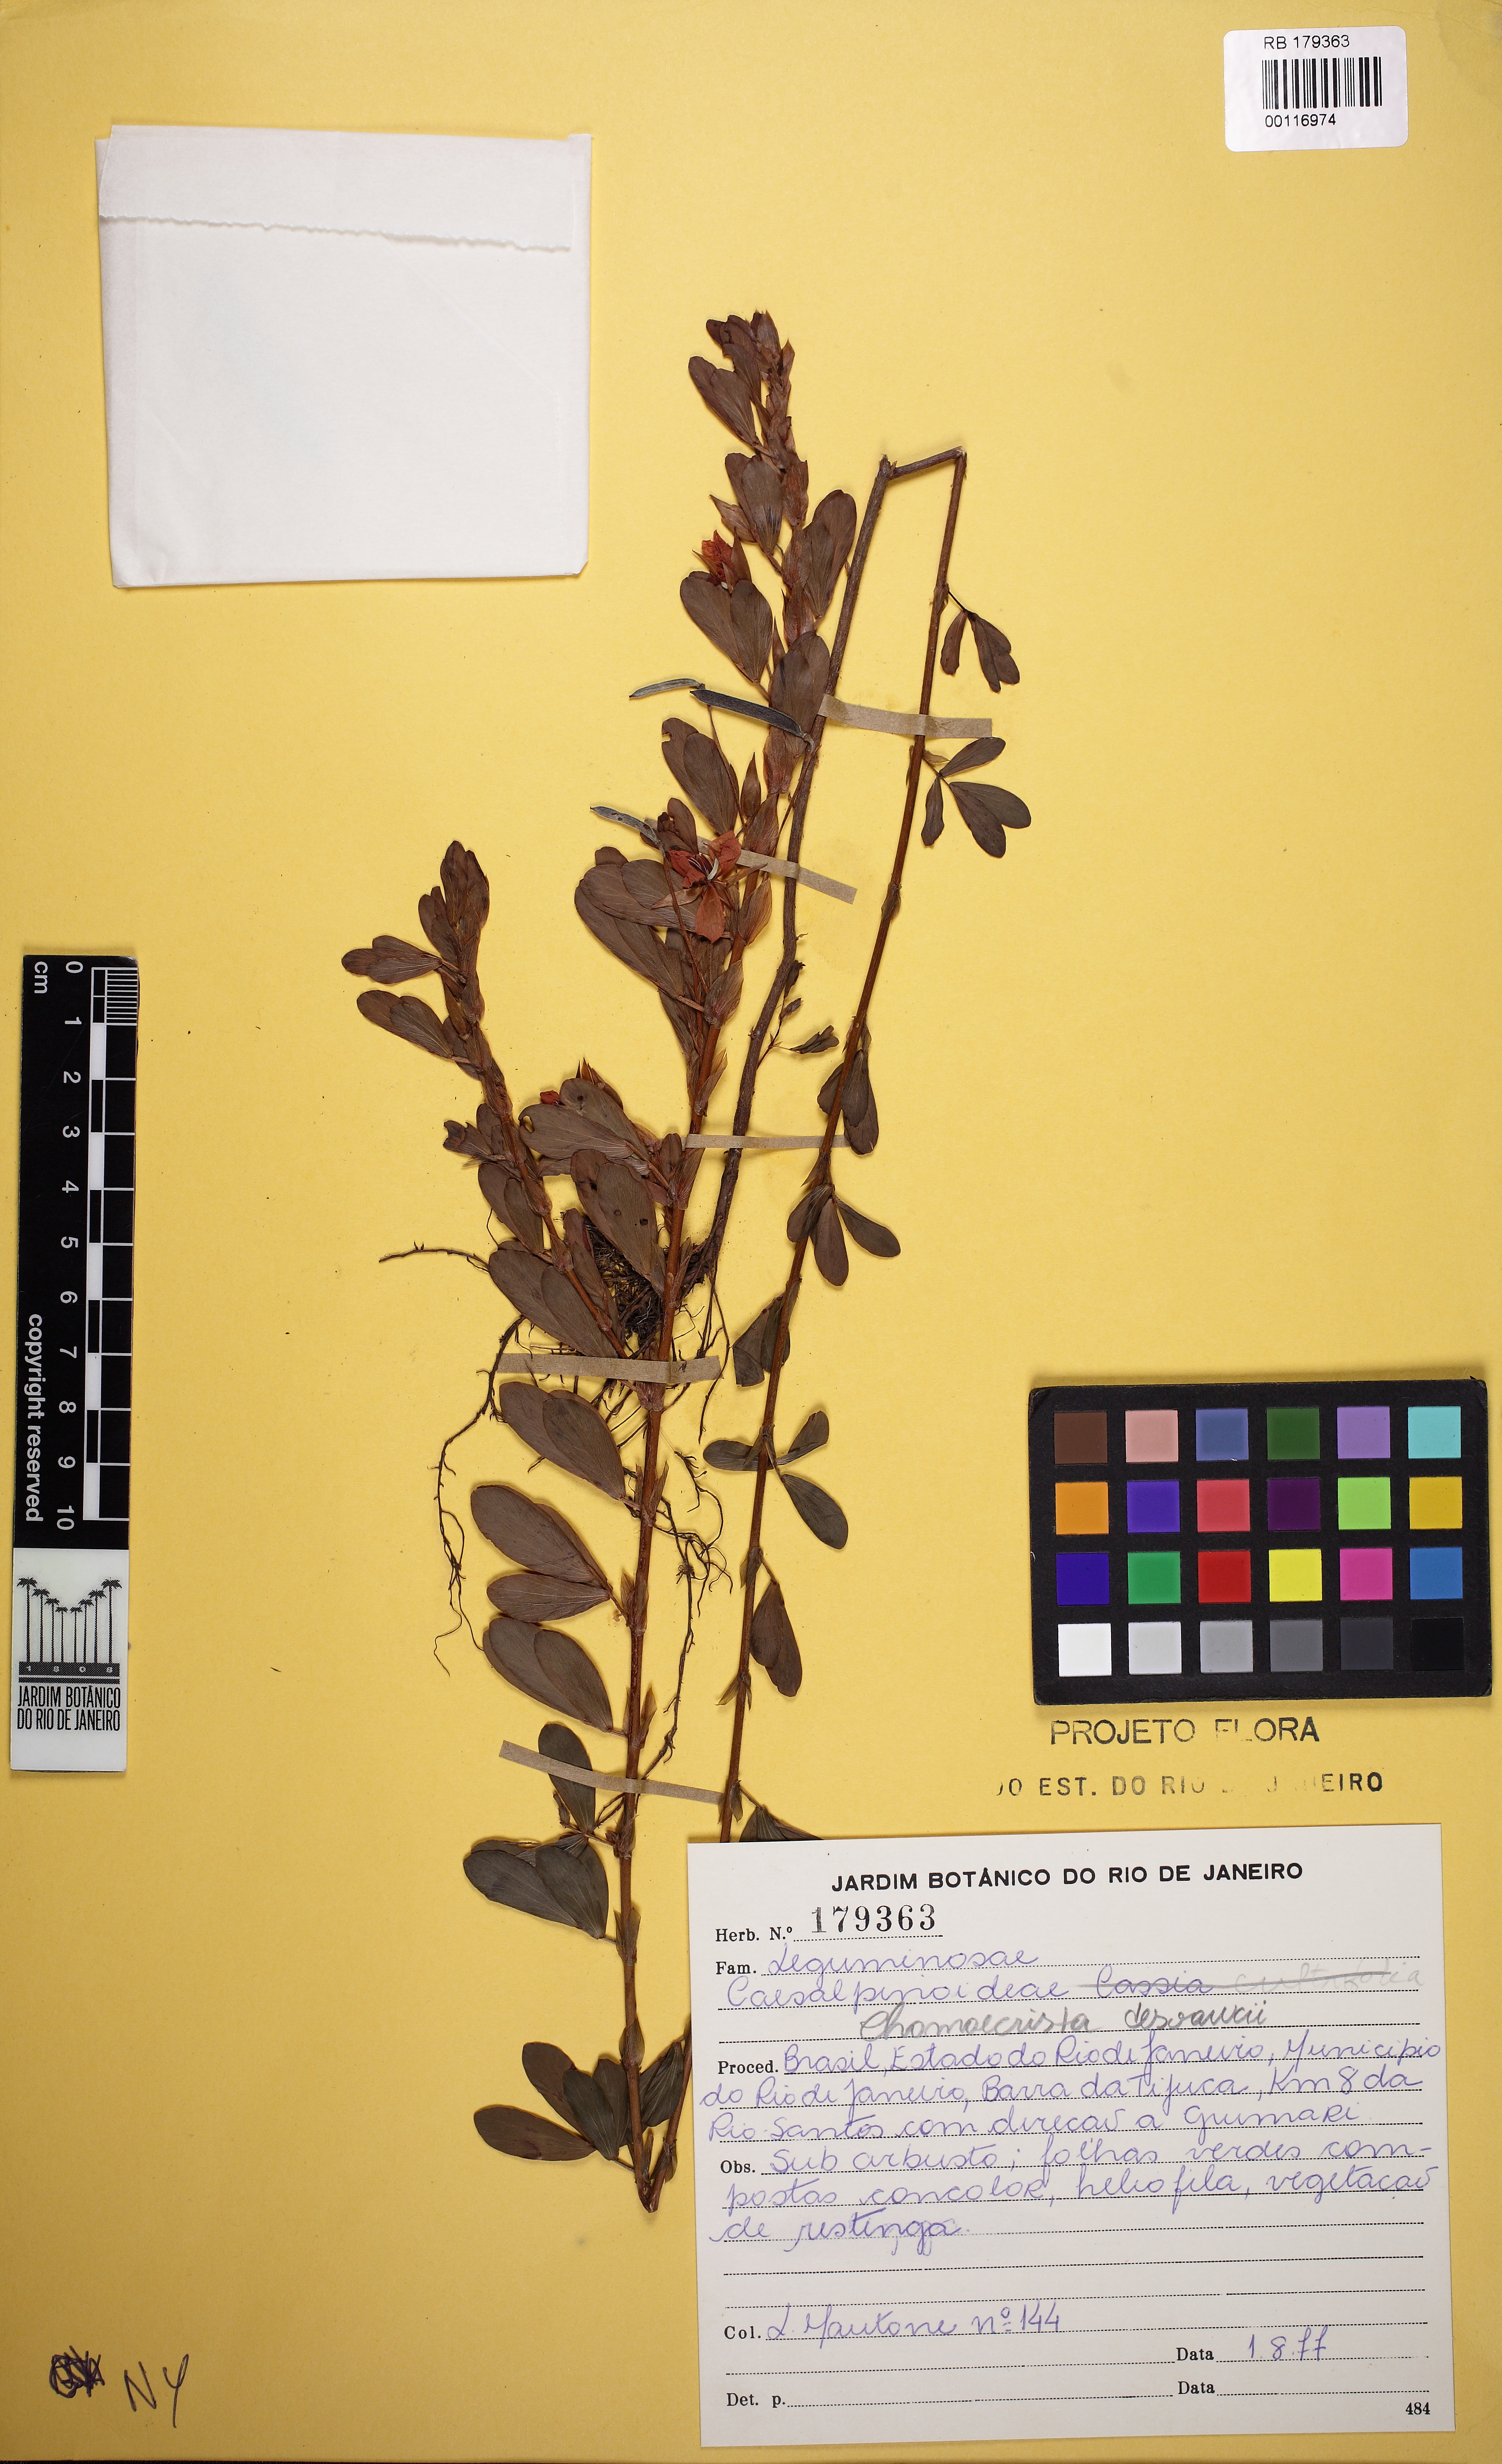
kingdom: Plantae
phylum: Tracheophyta
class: Magnoliopsida
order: Fabales
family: Fabaceae
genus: Chamaecrista
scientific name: Chamaecrista desvauxii
